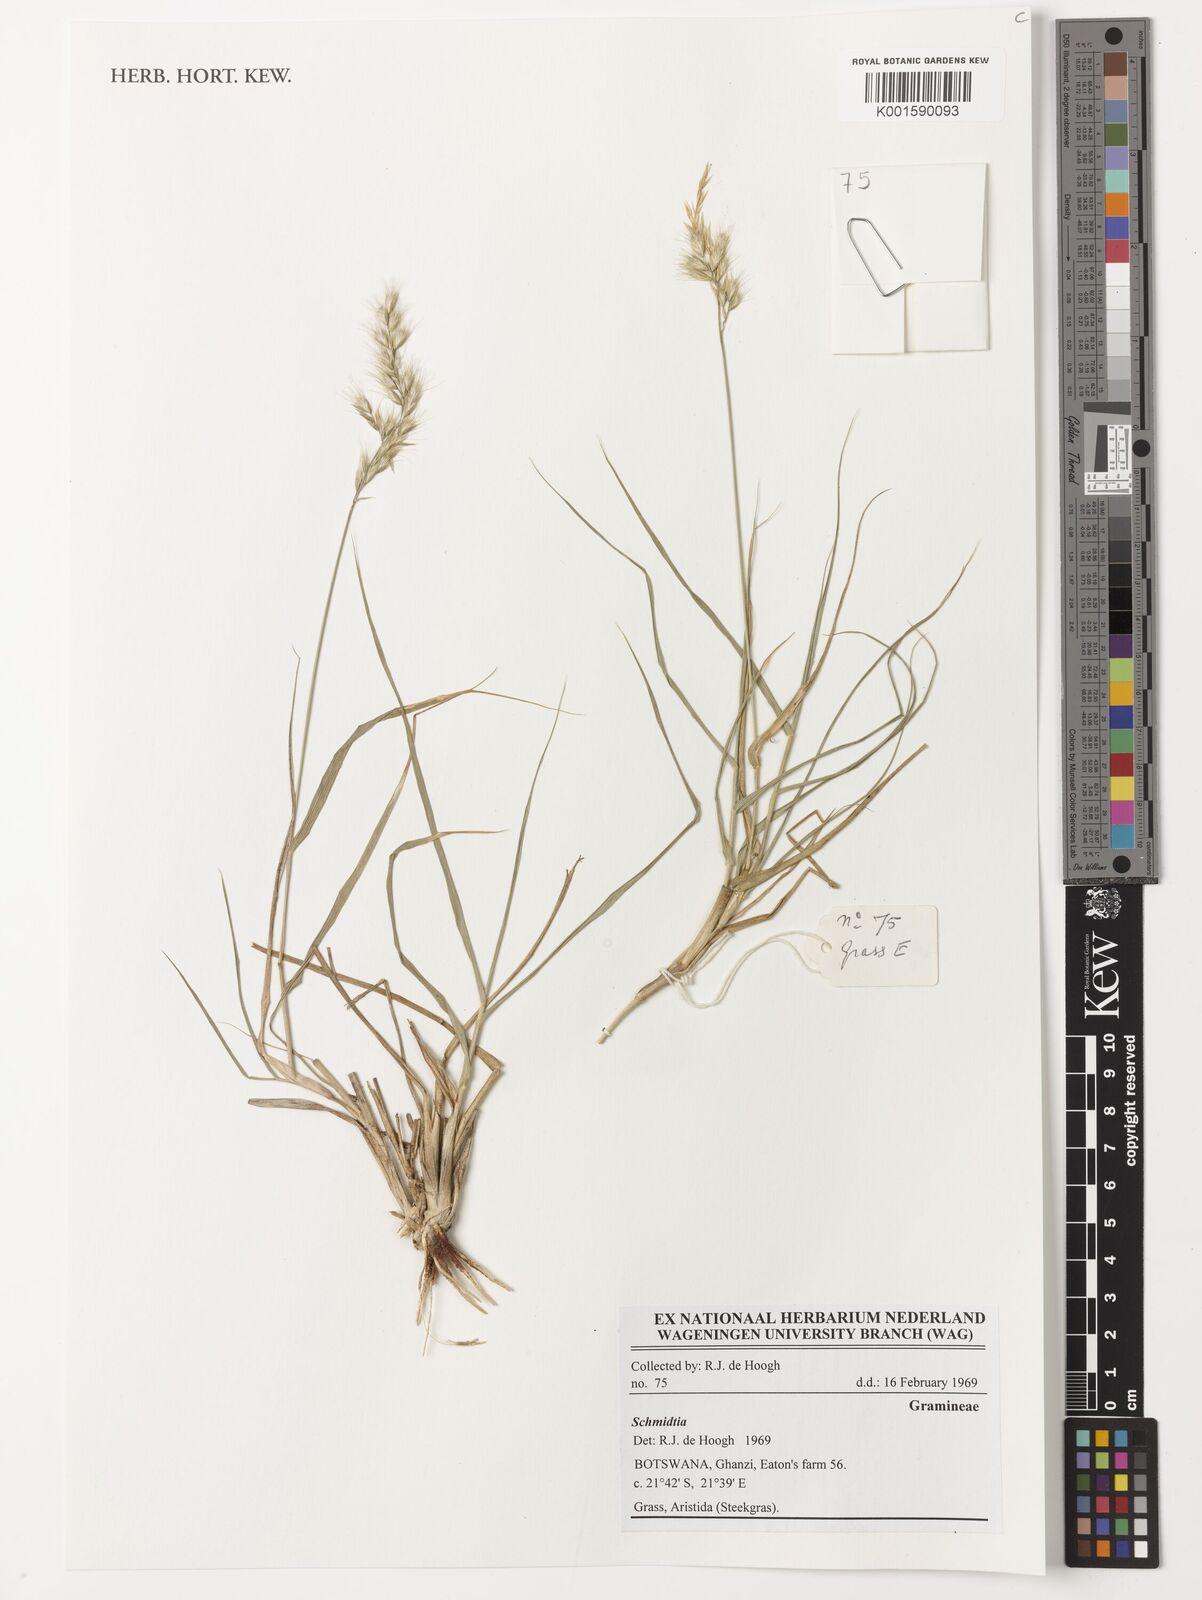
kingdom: Plantae
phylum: Tracheophyta
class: Liliopsida
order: Poales
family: Poaceae
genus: Schmidtia
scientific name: Schmidtia
